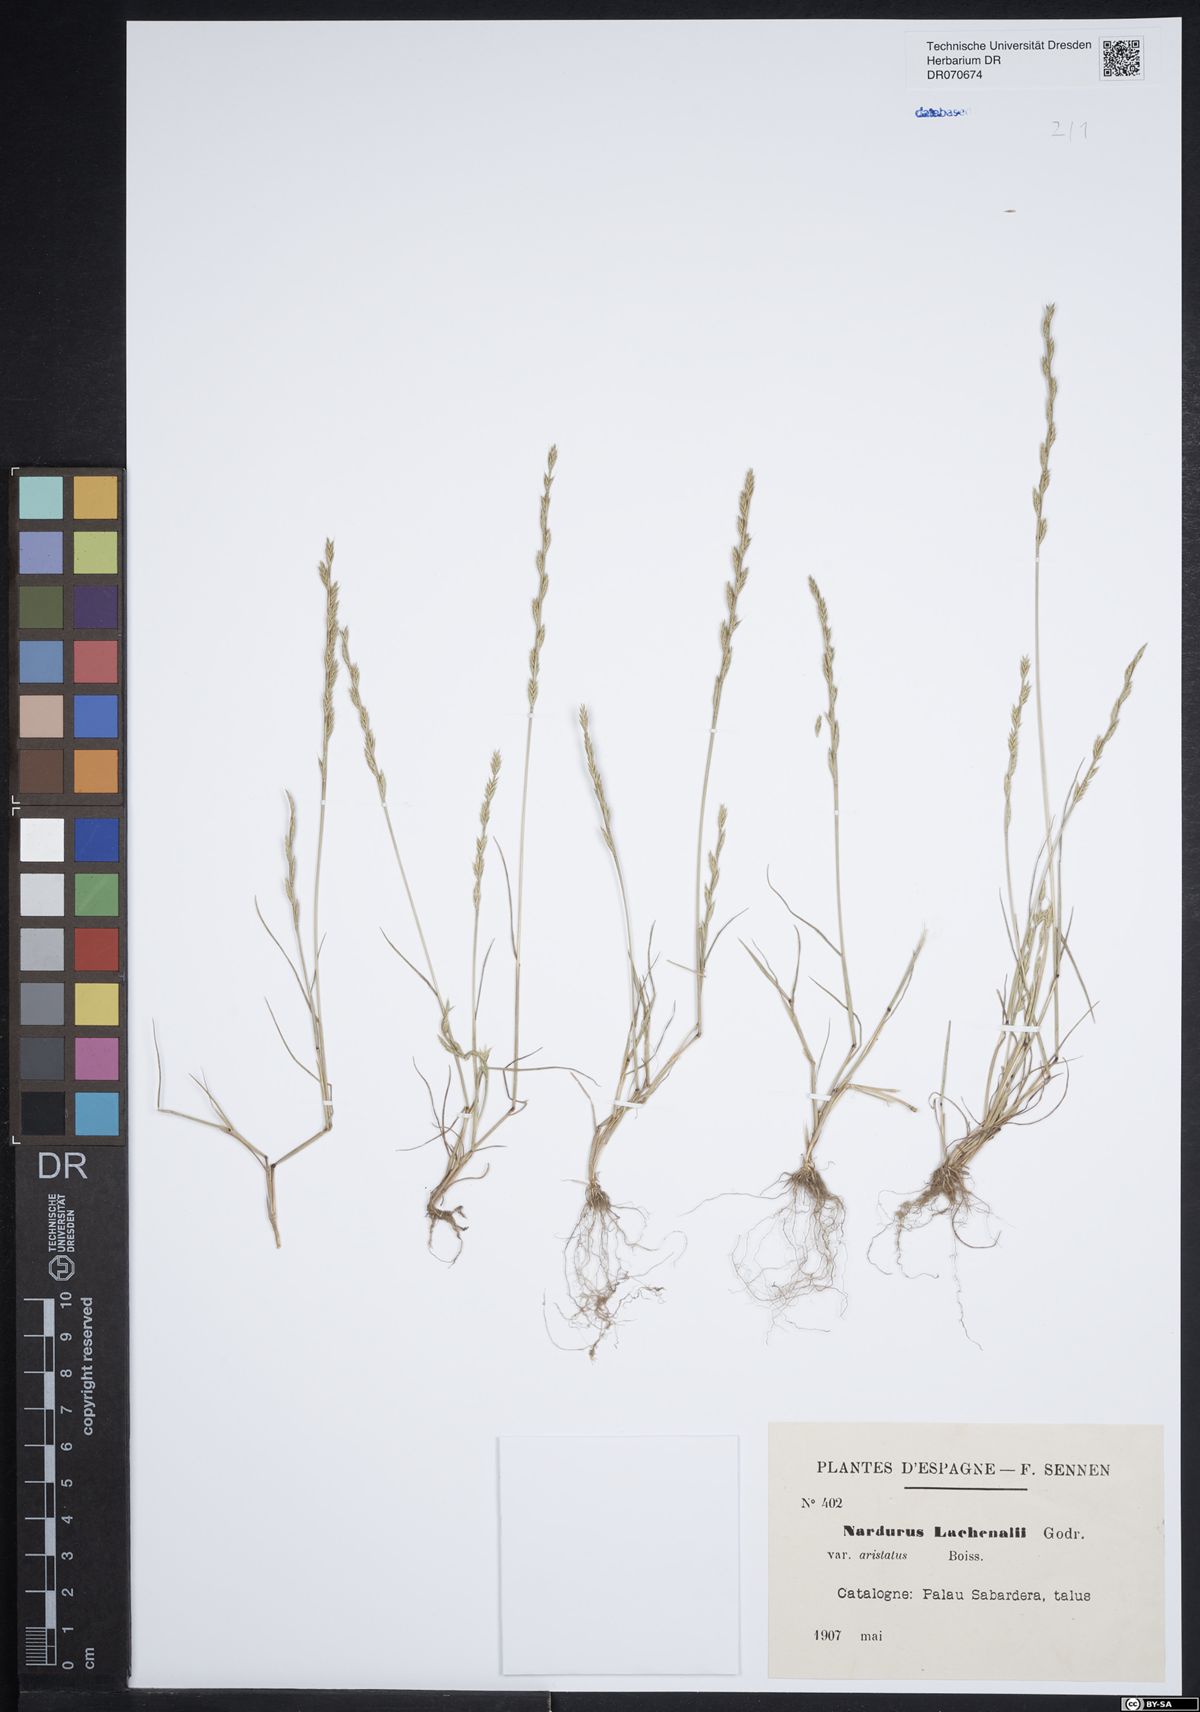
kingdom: Plantae
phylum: Tracheophyta
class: Liliopsida
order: Poales
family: Poaceae
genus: Festuca
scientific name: Festuca lachenalii
